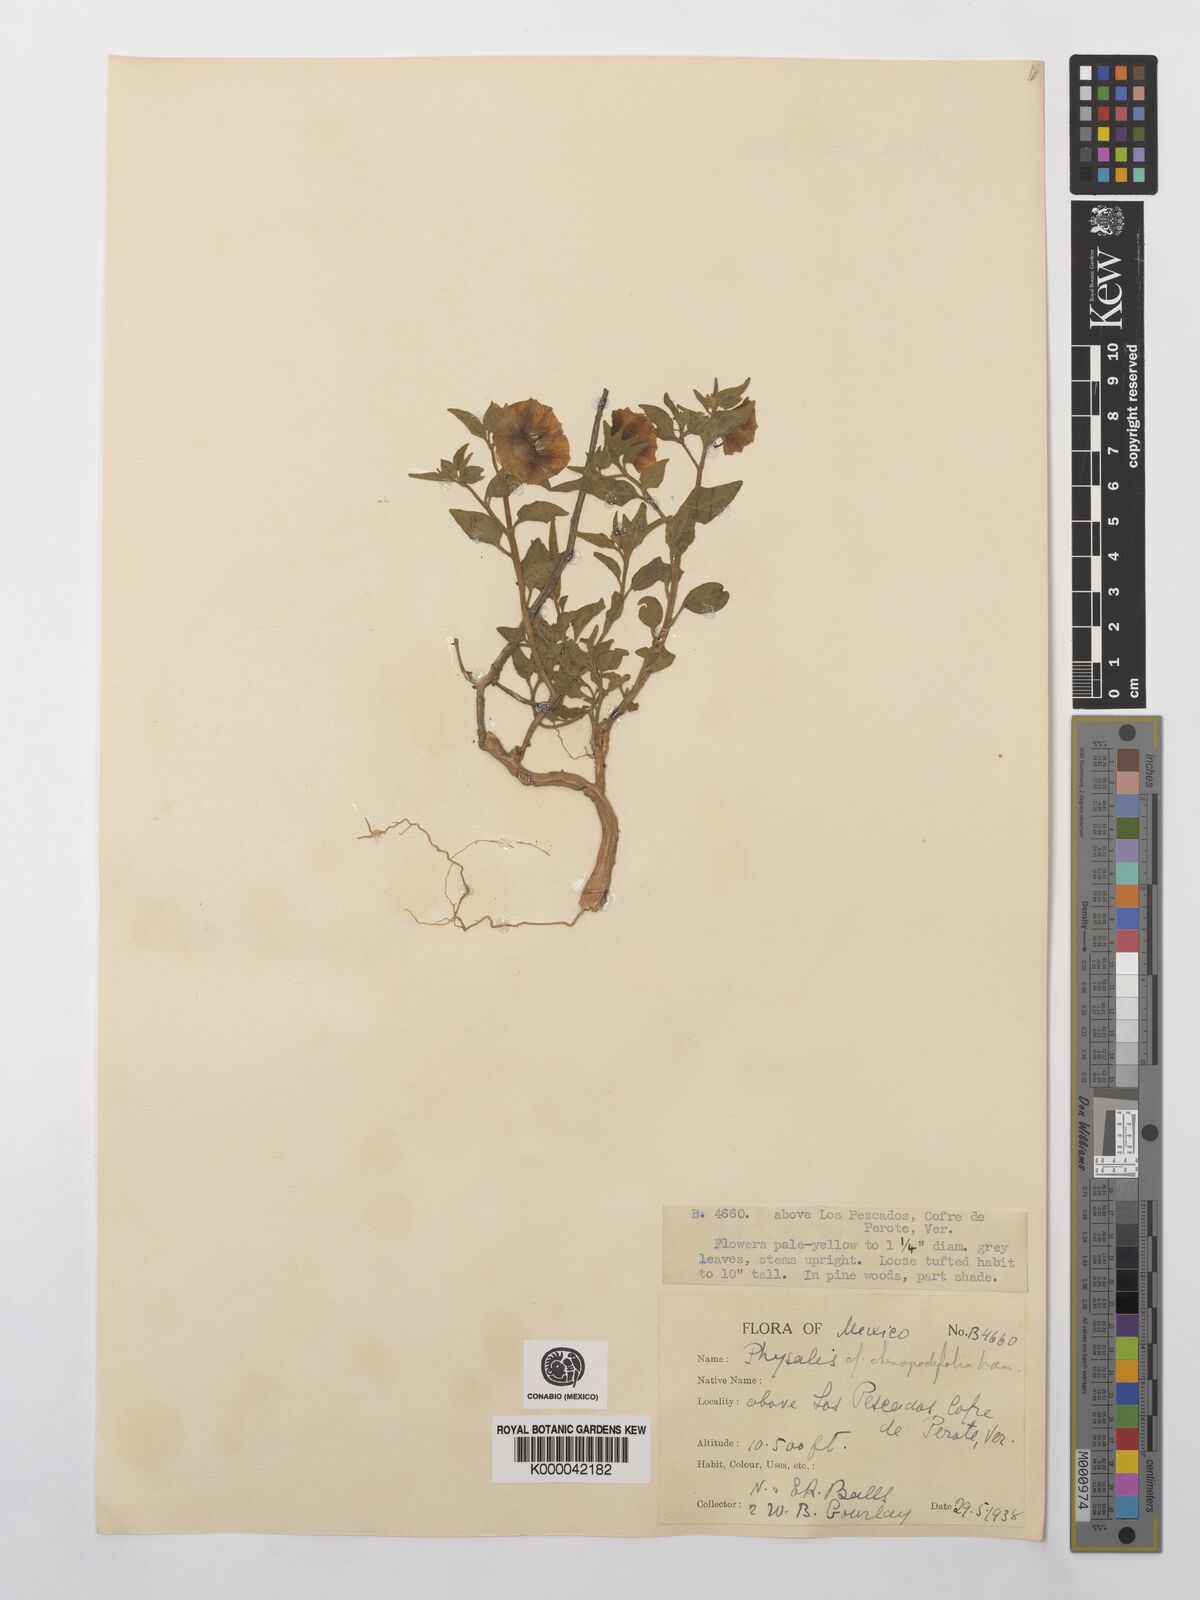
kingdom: Plantae
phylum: Tracheophyta
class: Magnoliopsida
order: Solanales
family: Solanaceae
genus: Physalis
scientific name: Physalis orizabae
